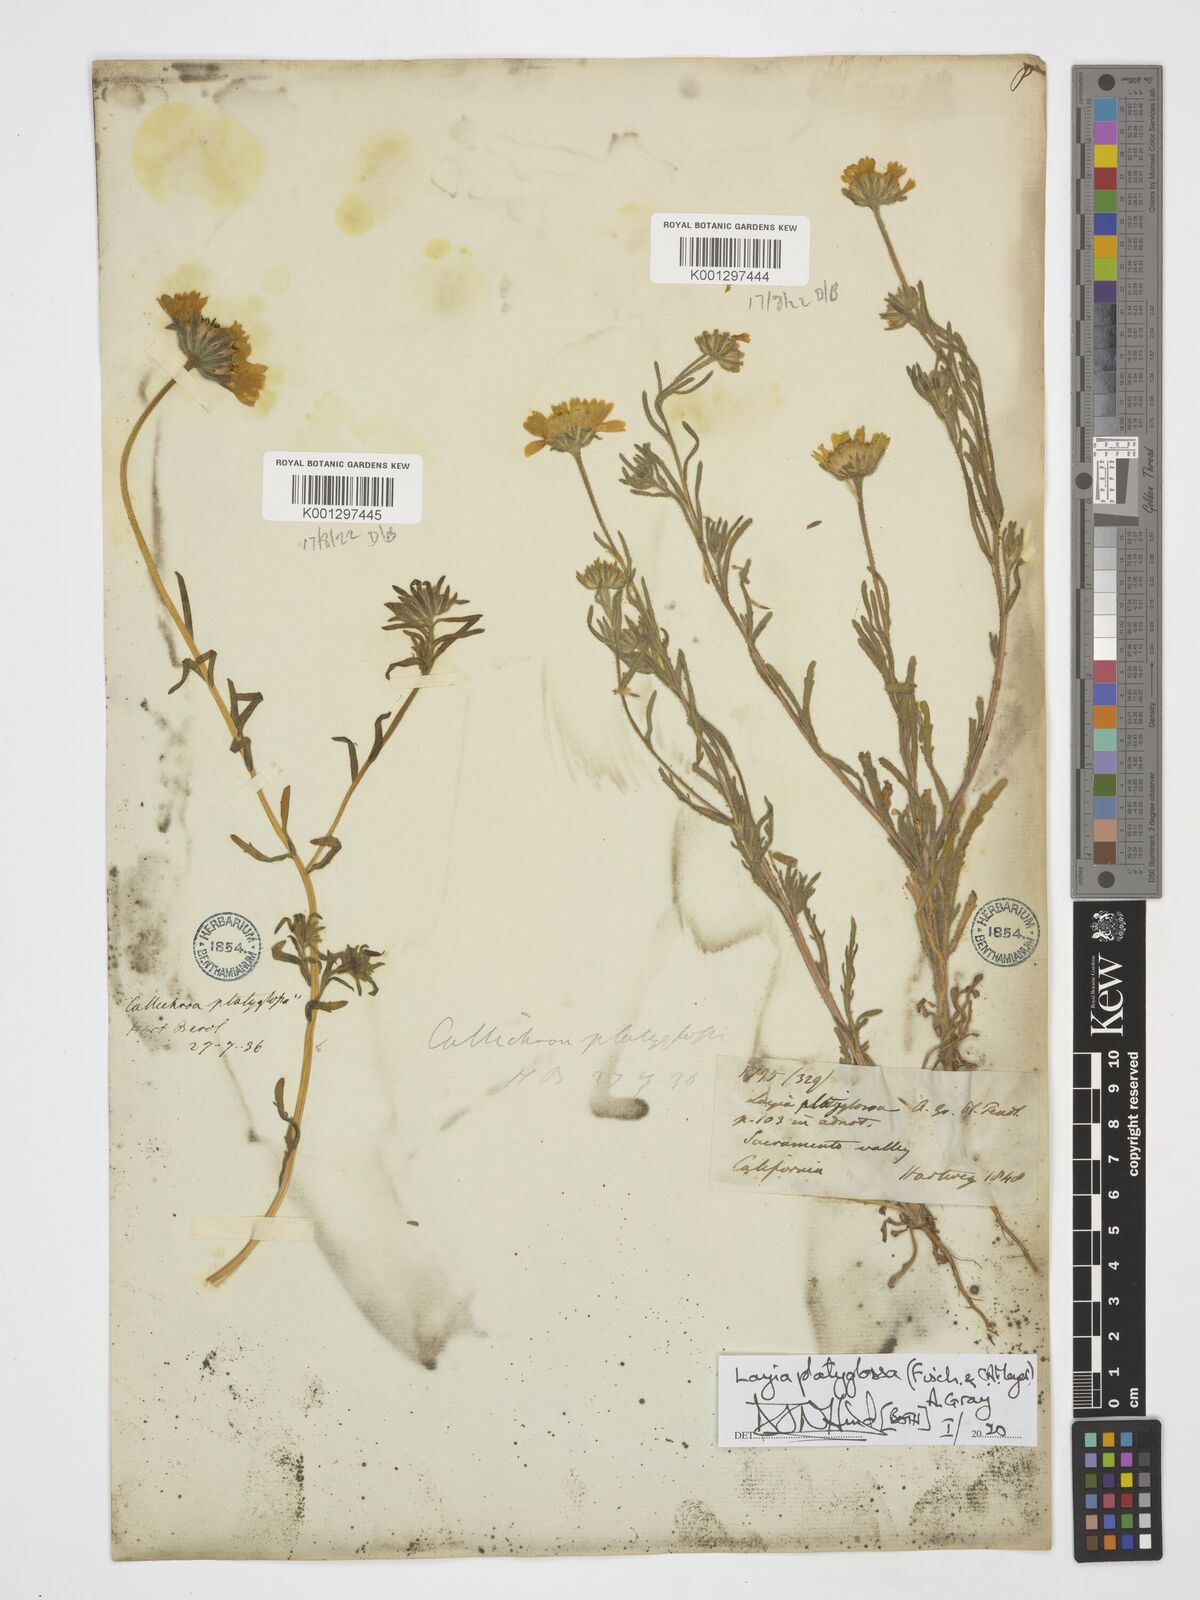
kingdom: Plantae
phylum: Tracheophyta
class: Magnoliopsida
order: Asterales
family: Asteraceae
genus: Layia
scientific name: Layia platyglossa
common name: Tidy-tips
